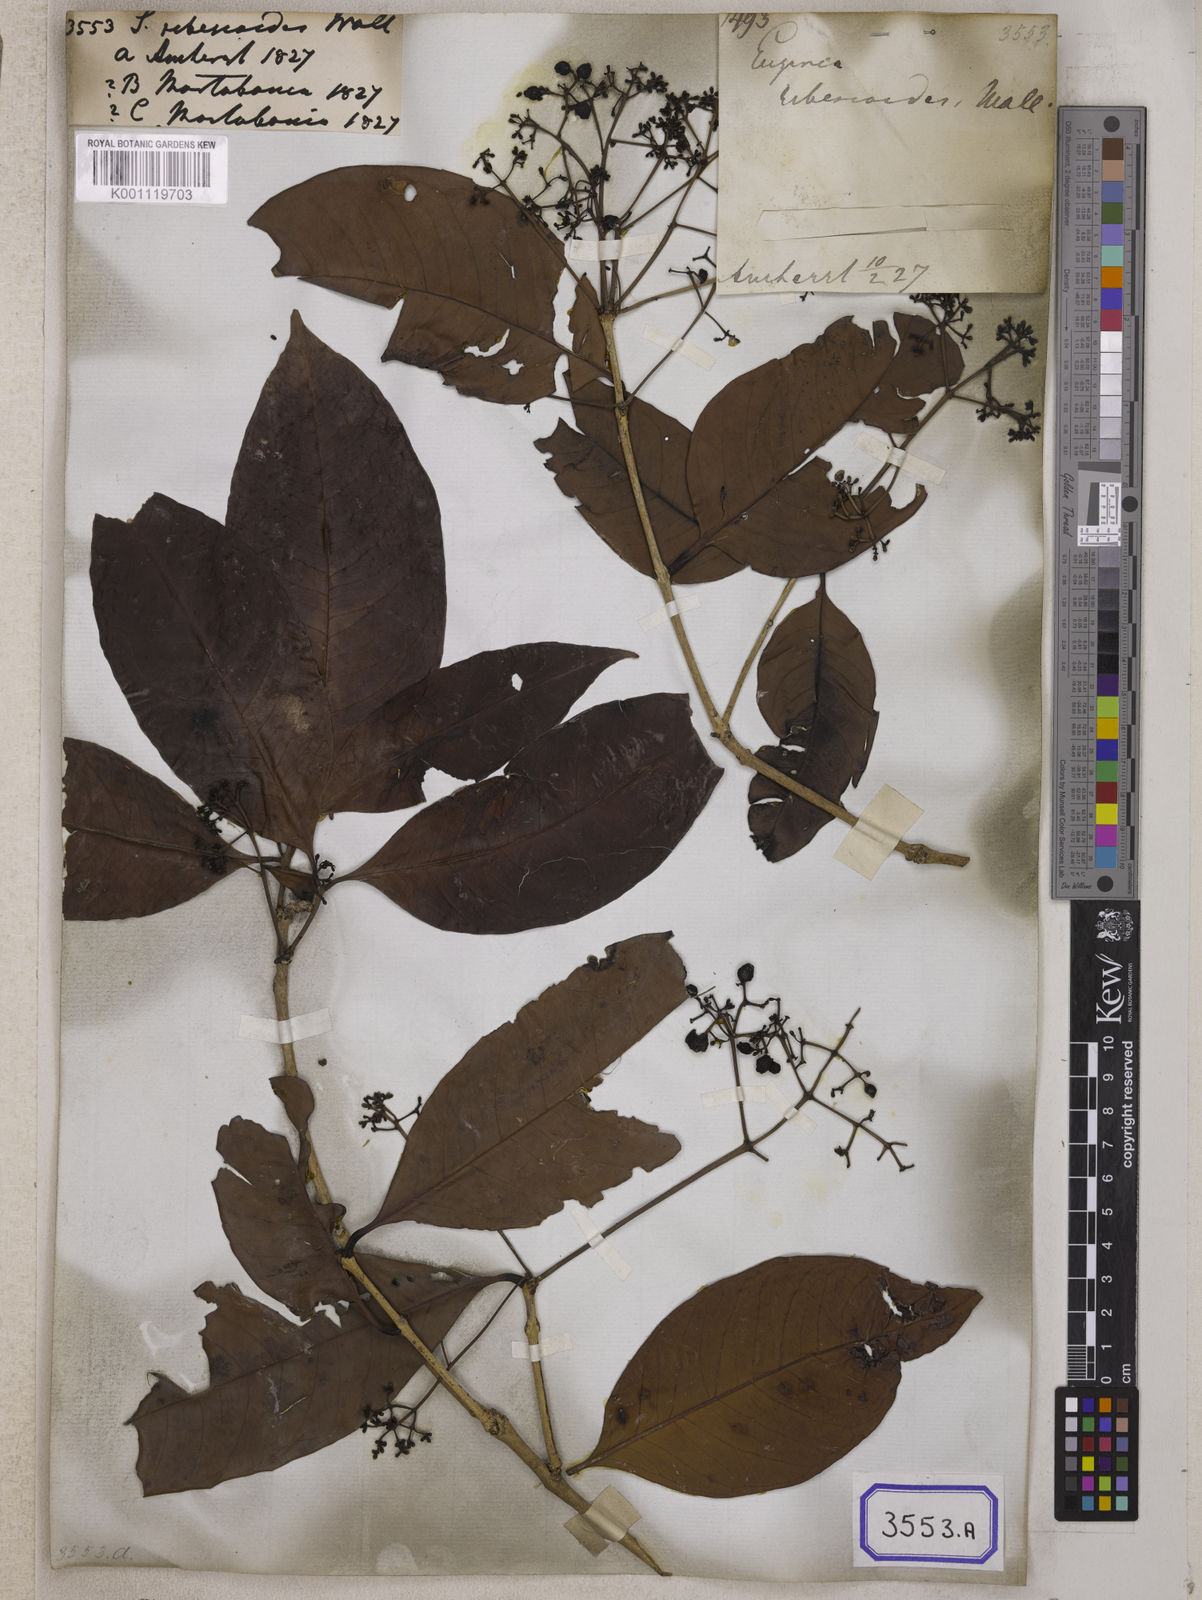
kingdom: Plantae
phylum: Tracheophyta
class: Magnoliopsida
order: Myrtales
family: Myrtaceae
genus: Syzygium
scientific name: Syzygium
